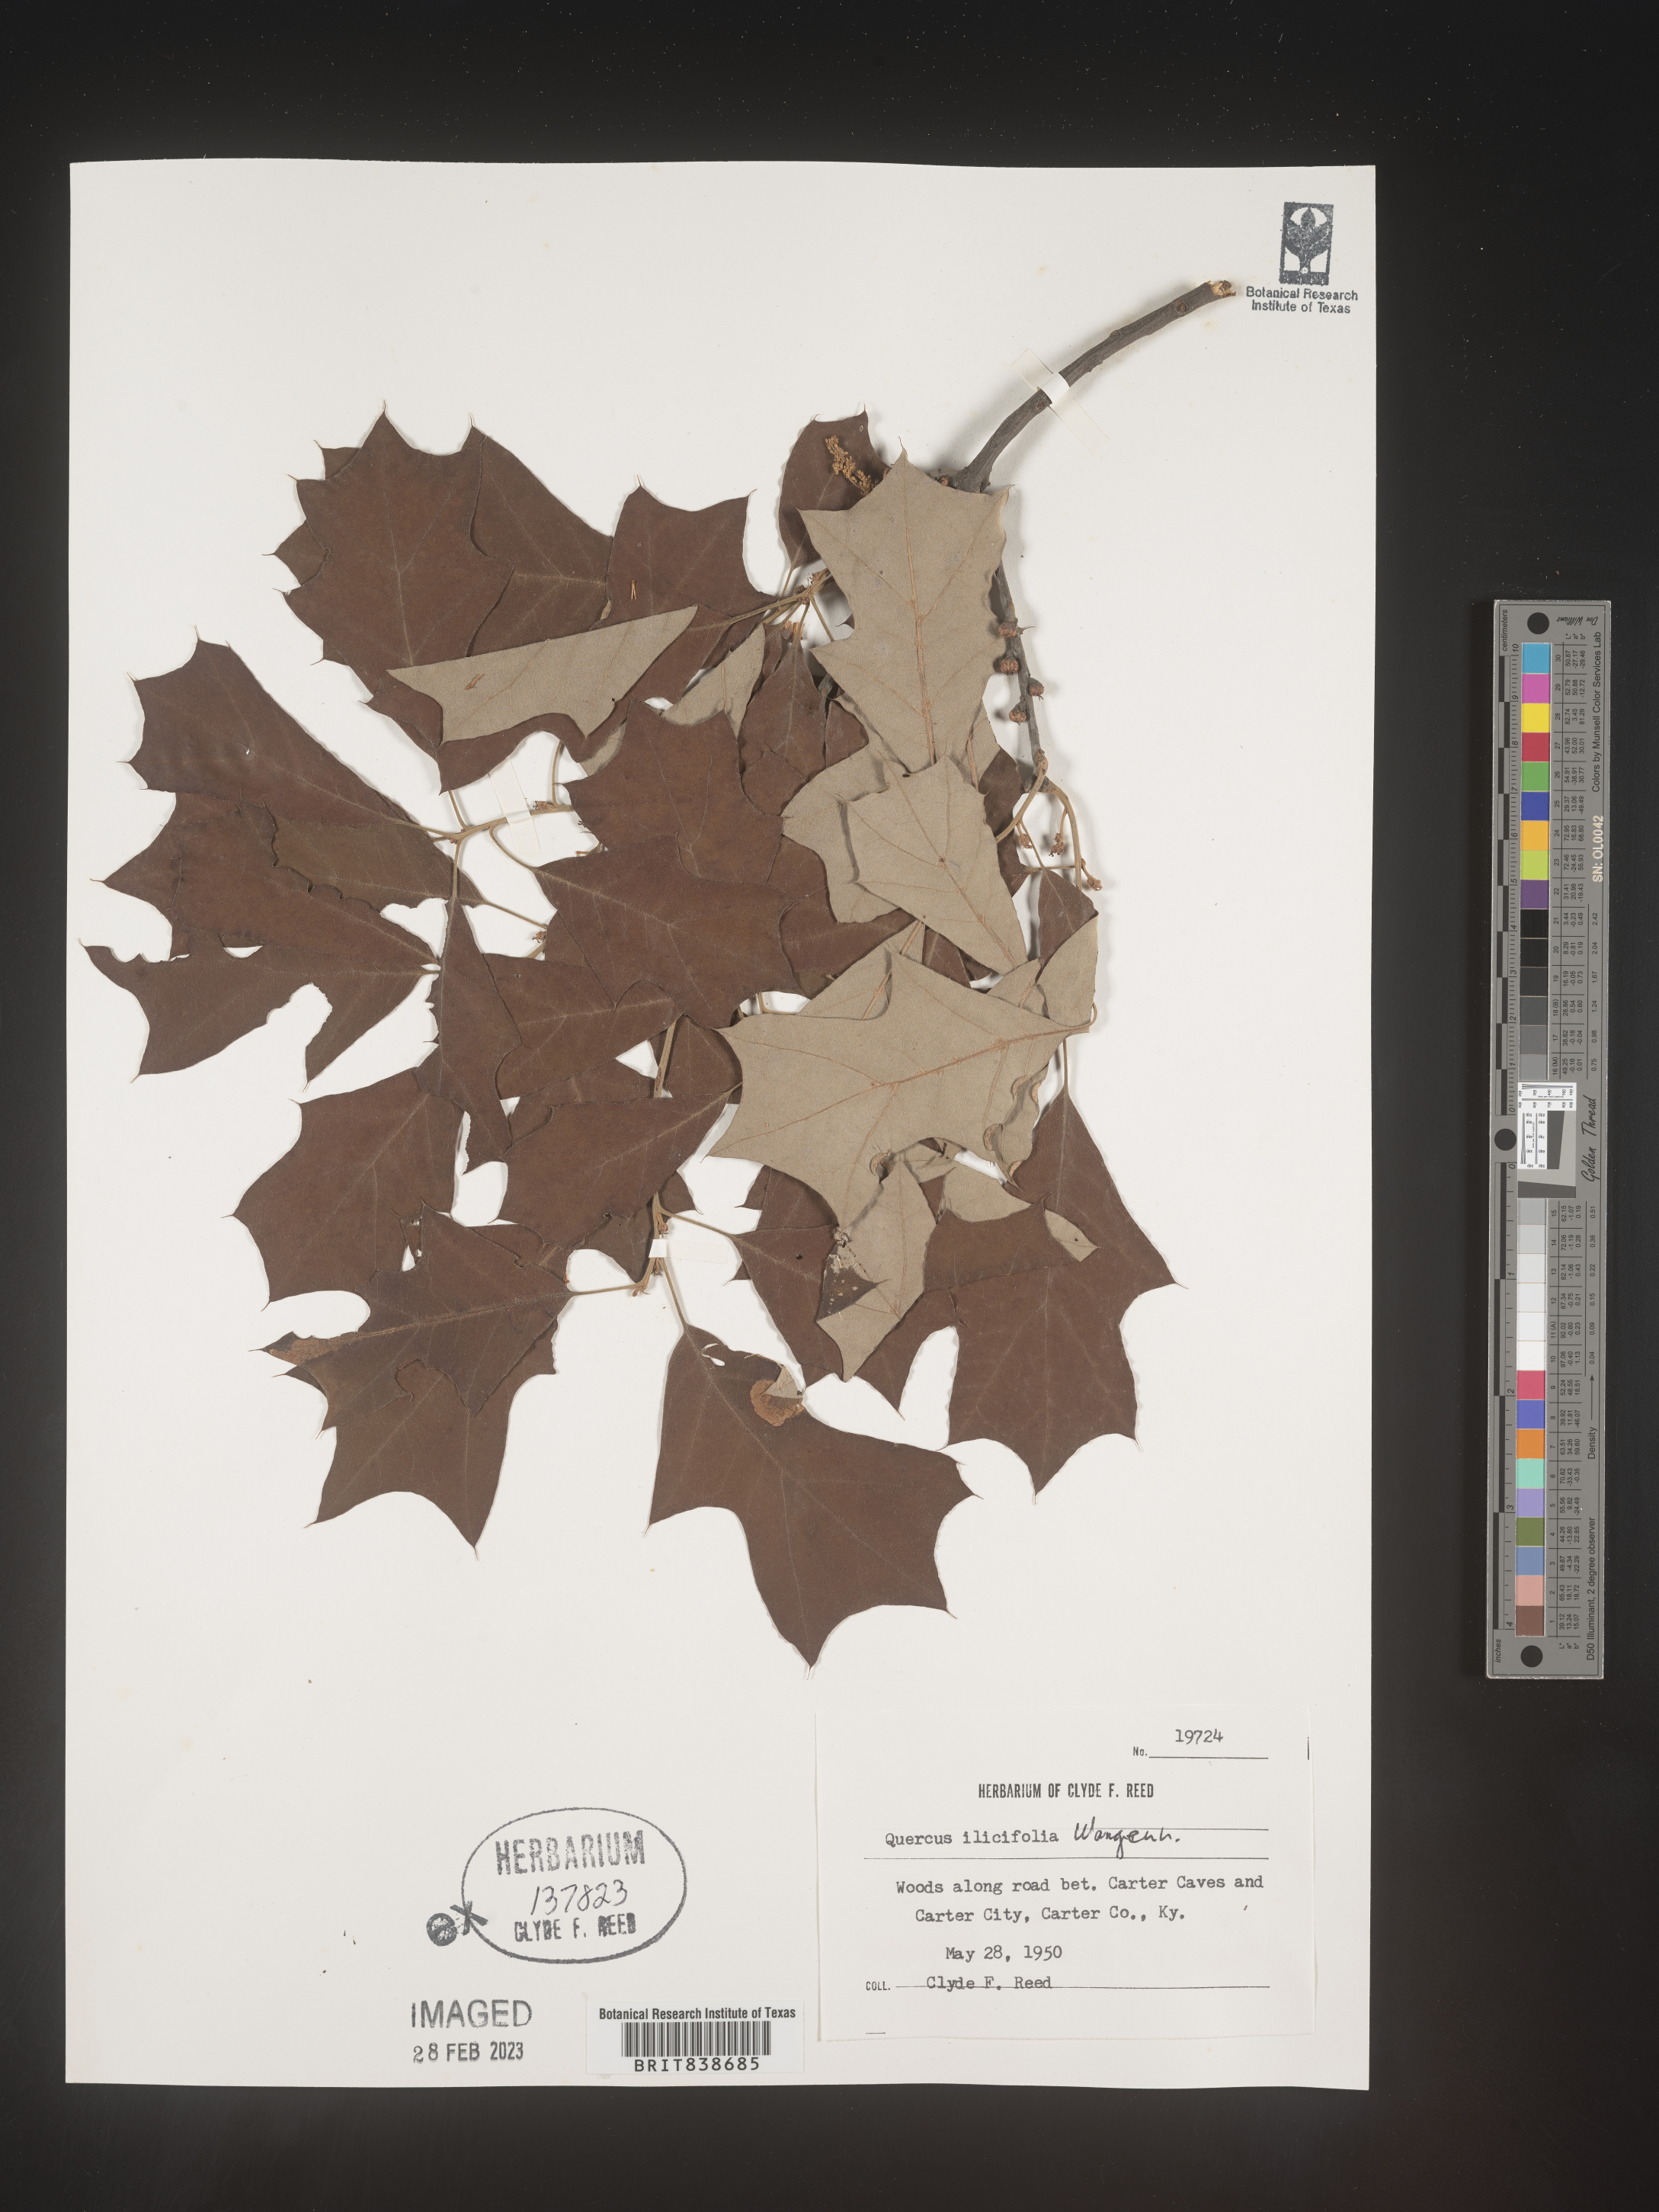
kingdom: Plantae
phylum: Tracheophyta
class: Magnoliopsida
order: Fagales
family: Fagaceae
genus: Quercus
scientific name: Quercus ilicifolia
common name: Bear oak
